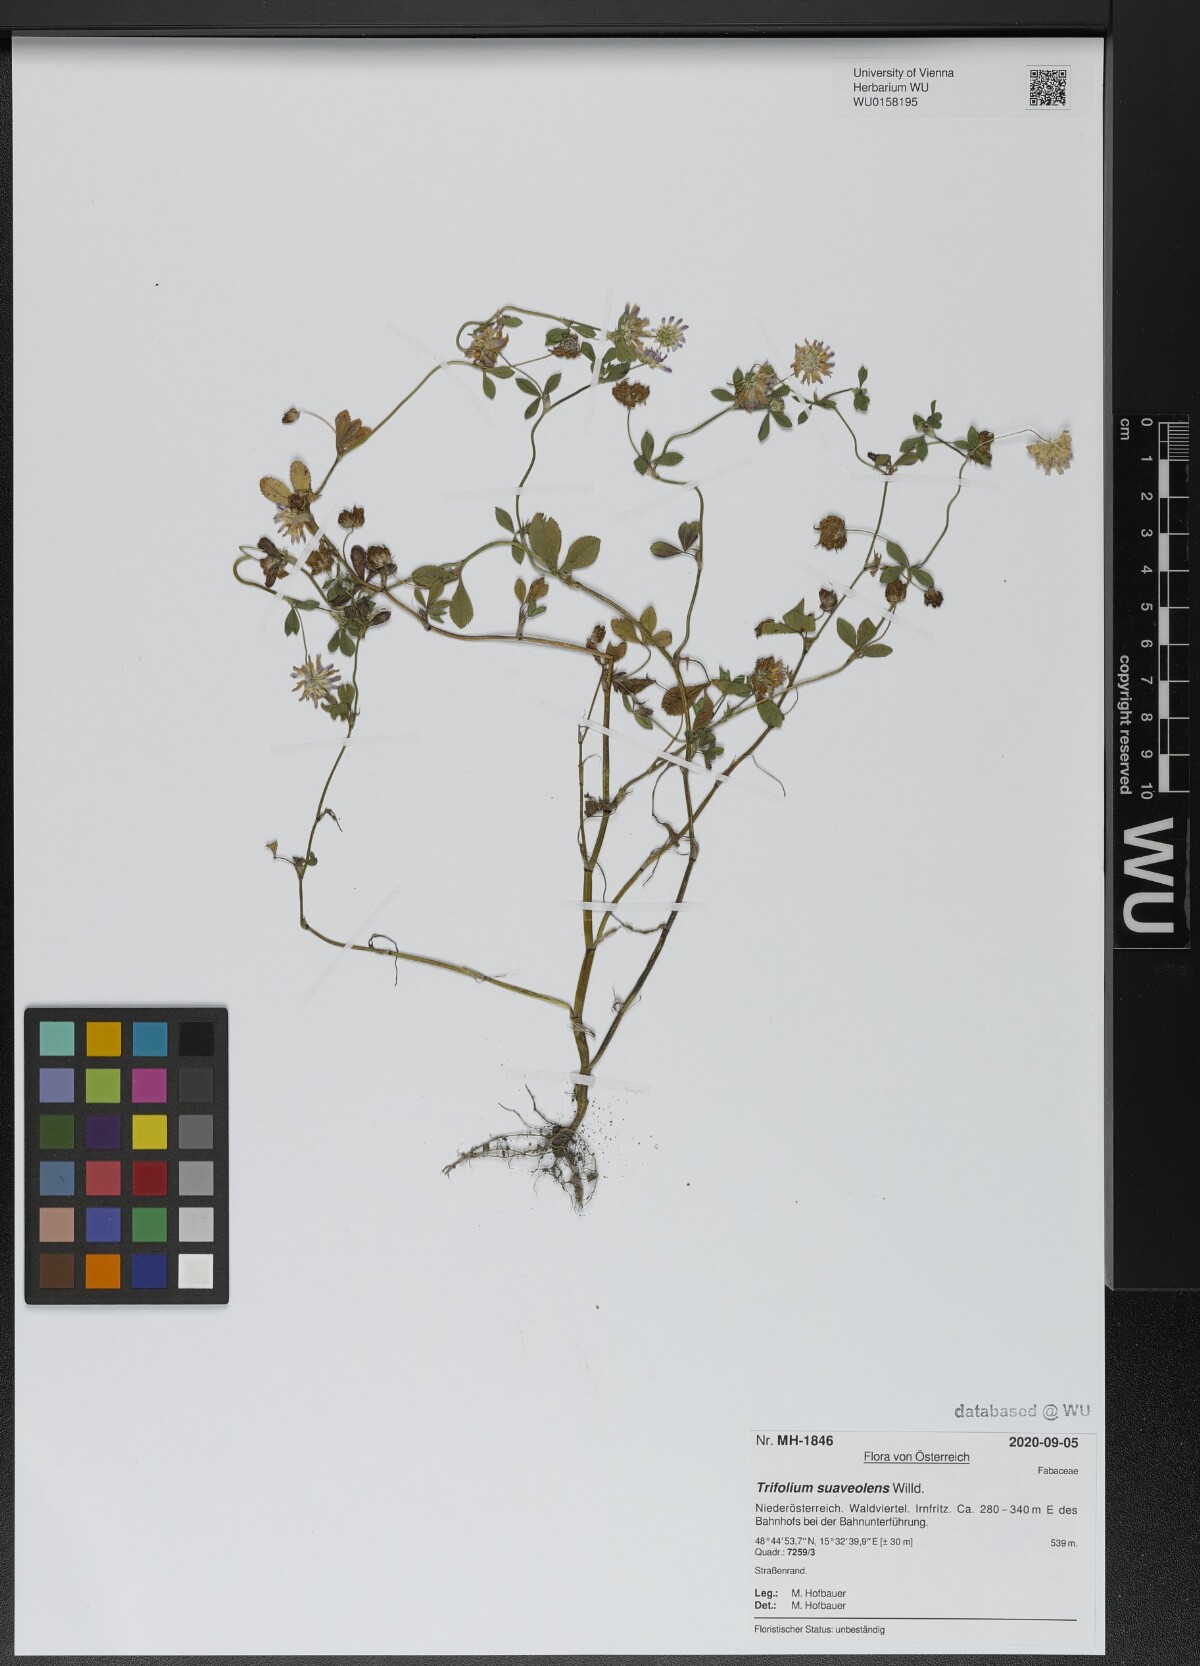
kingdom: Plantae
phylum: Tracheophyta
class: Magnoliopsida
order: Fabales
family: Fabaceae
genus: Trifolium
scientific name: Trifolium resupinatum
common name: Reversed clover
